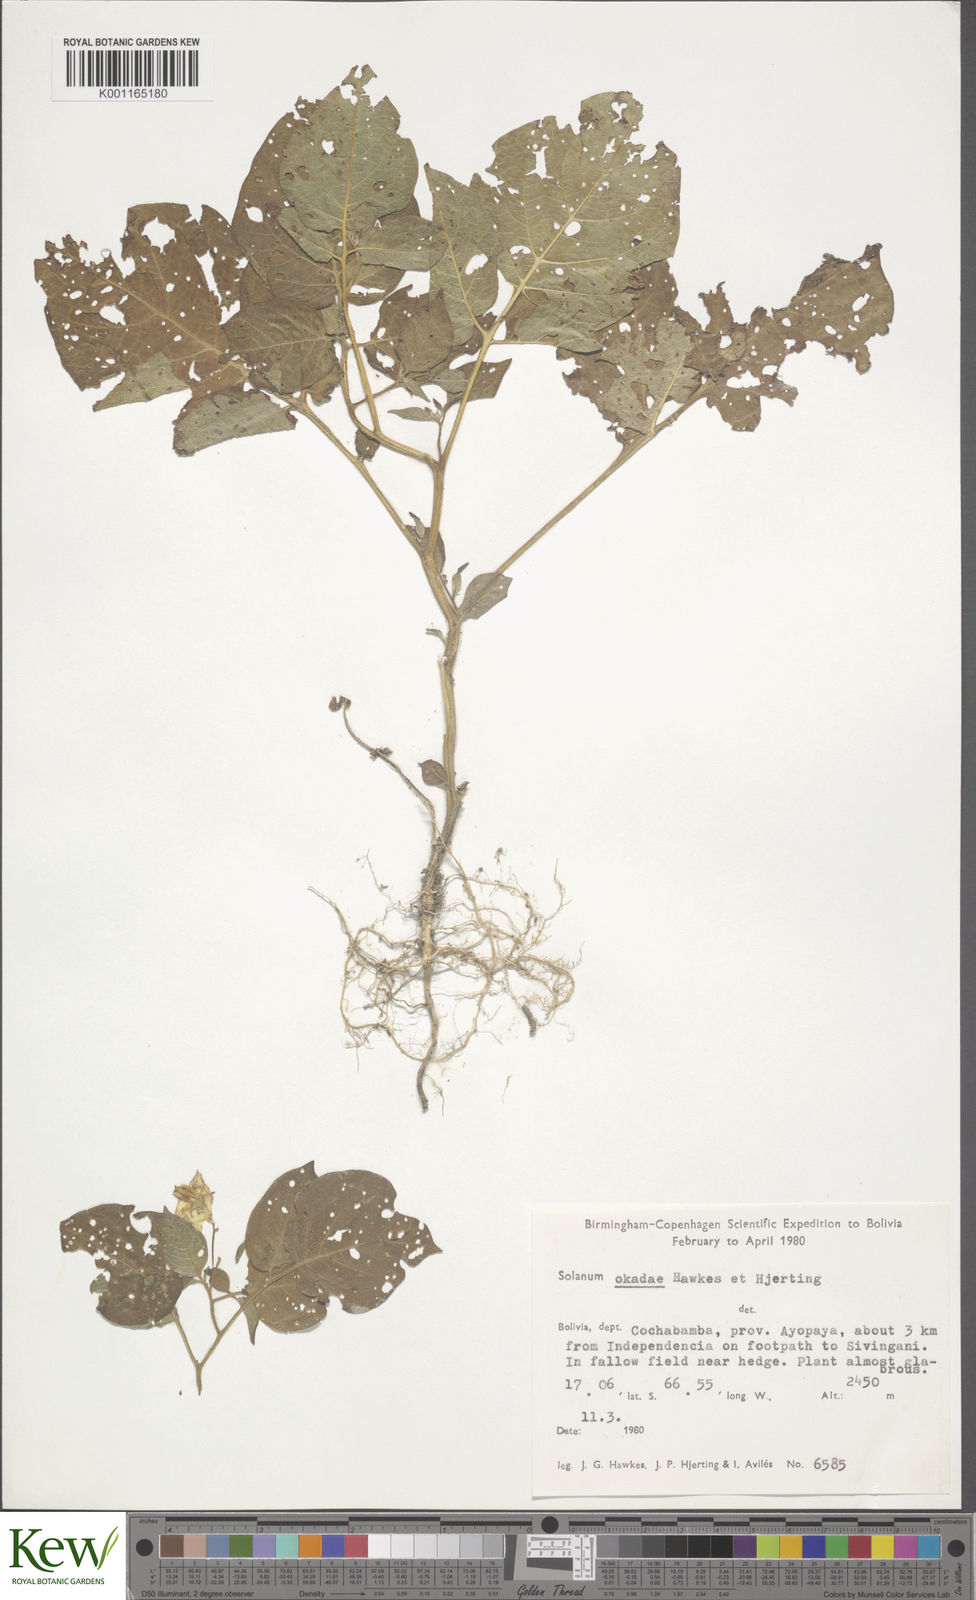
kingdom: Plantae
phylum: Tracheophyta
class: Magnoliopsida
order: Solanales
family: Solanaceae
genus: Solanum
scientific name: Solanum okadae
